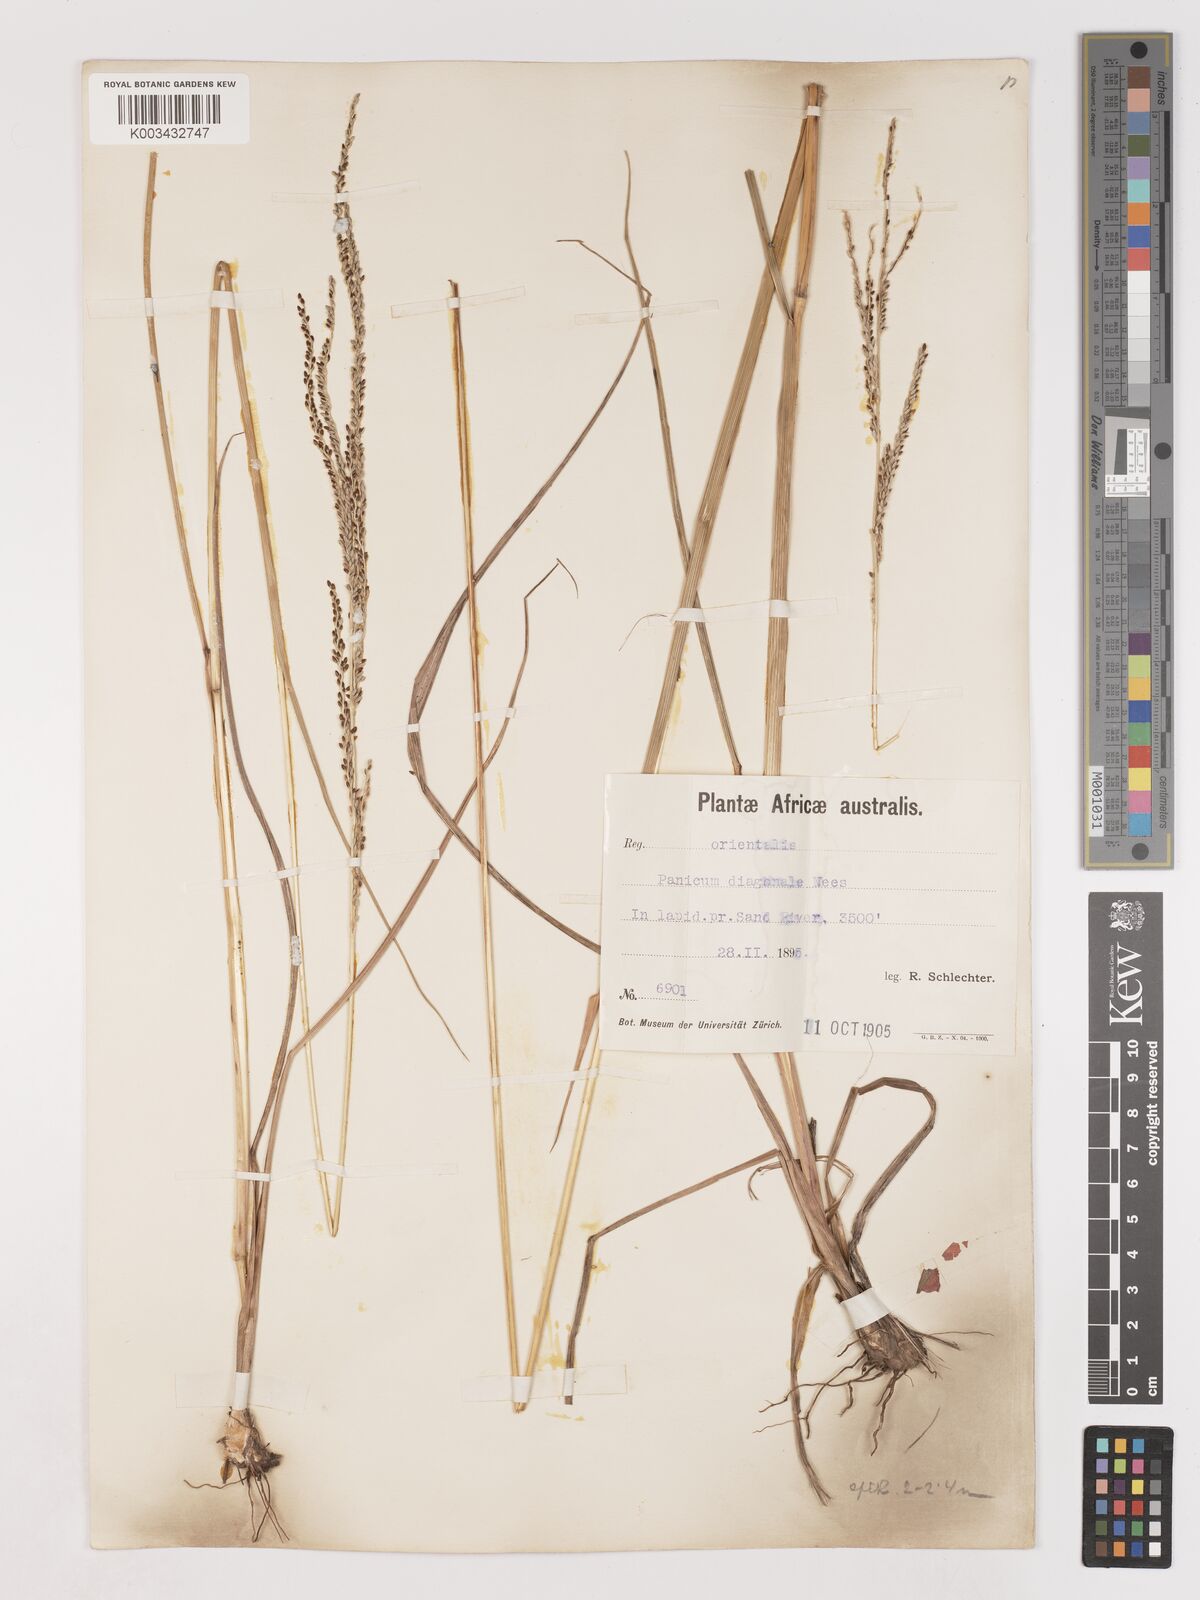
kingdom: Plantae
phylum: Tracheophyta
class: Liliopsida
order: Poales
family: Poaceae
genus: Digitaria
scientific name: Digitaria diagonalis
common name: Brown-seed finger grass
